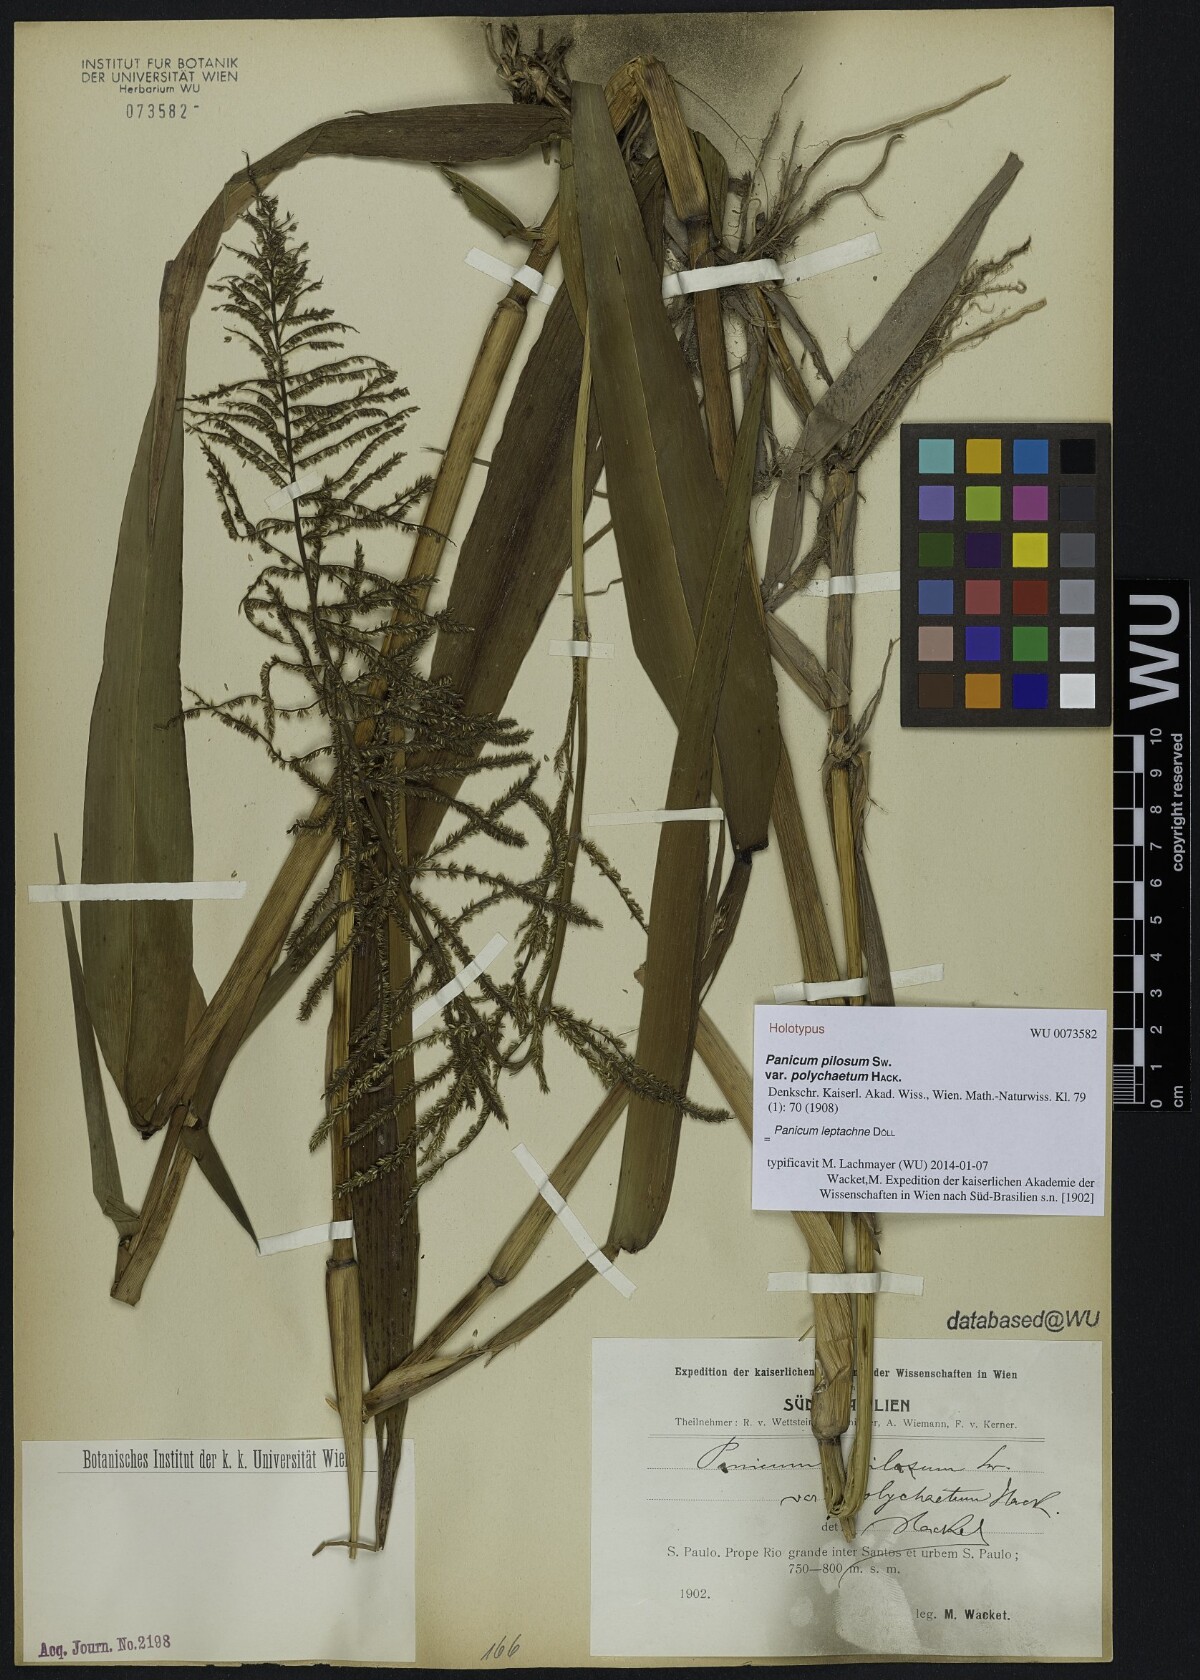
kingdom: Plantae
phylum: Tracheophyta
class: Liliopsida
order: Poales
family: Poaceae
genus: Hymenachne
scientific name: Hymenachne leptachne
